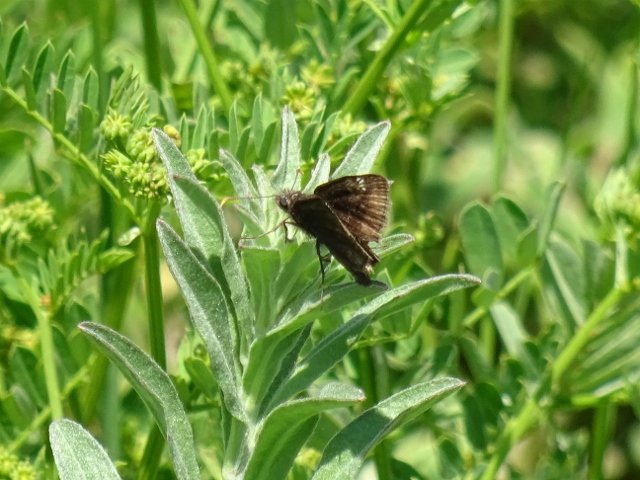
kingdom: Animalia
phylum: Arthropoda
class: Insecta
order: Lepidoptera
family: Hesperiidae
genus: Gesta
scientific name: Gesta
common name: Columbine Duskywing
